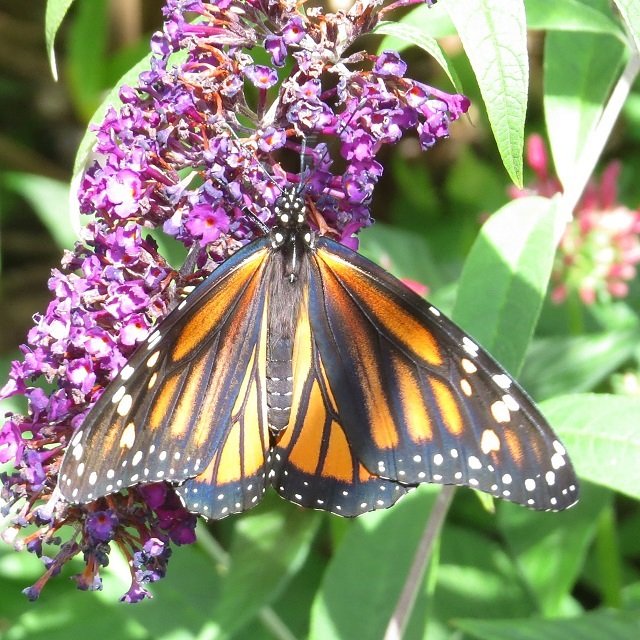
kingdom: Animalia
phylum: Arthropoda
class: Insecta
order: Lepidoptera
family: Nymphalidae
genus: Danaus
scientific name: Danaus plexippus
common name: Monarch
